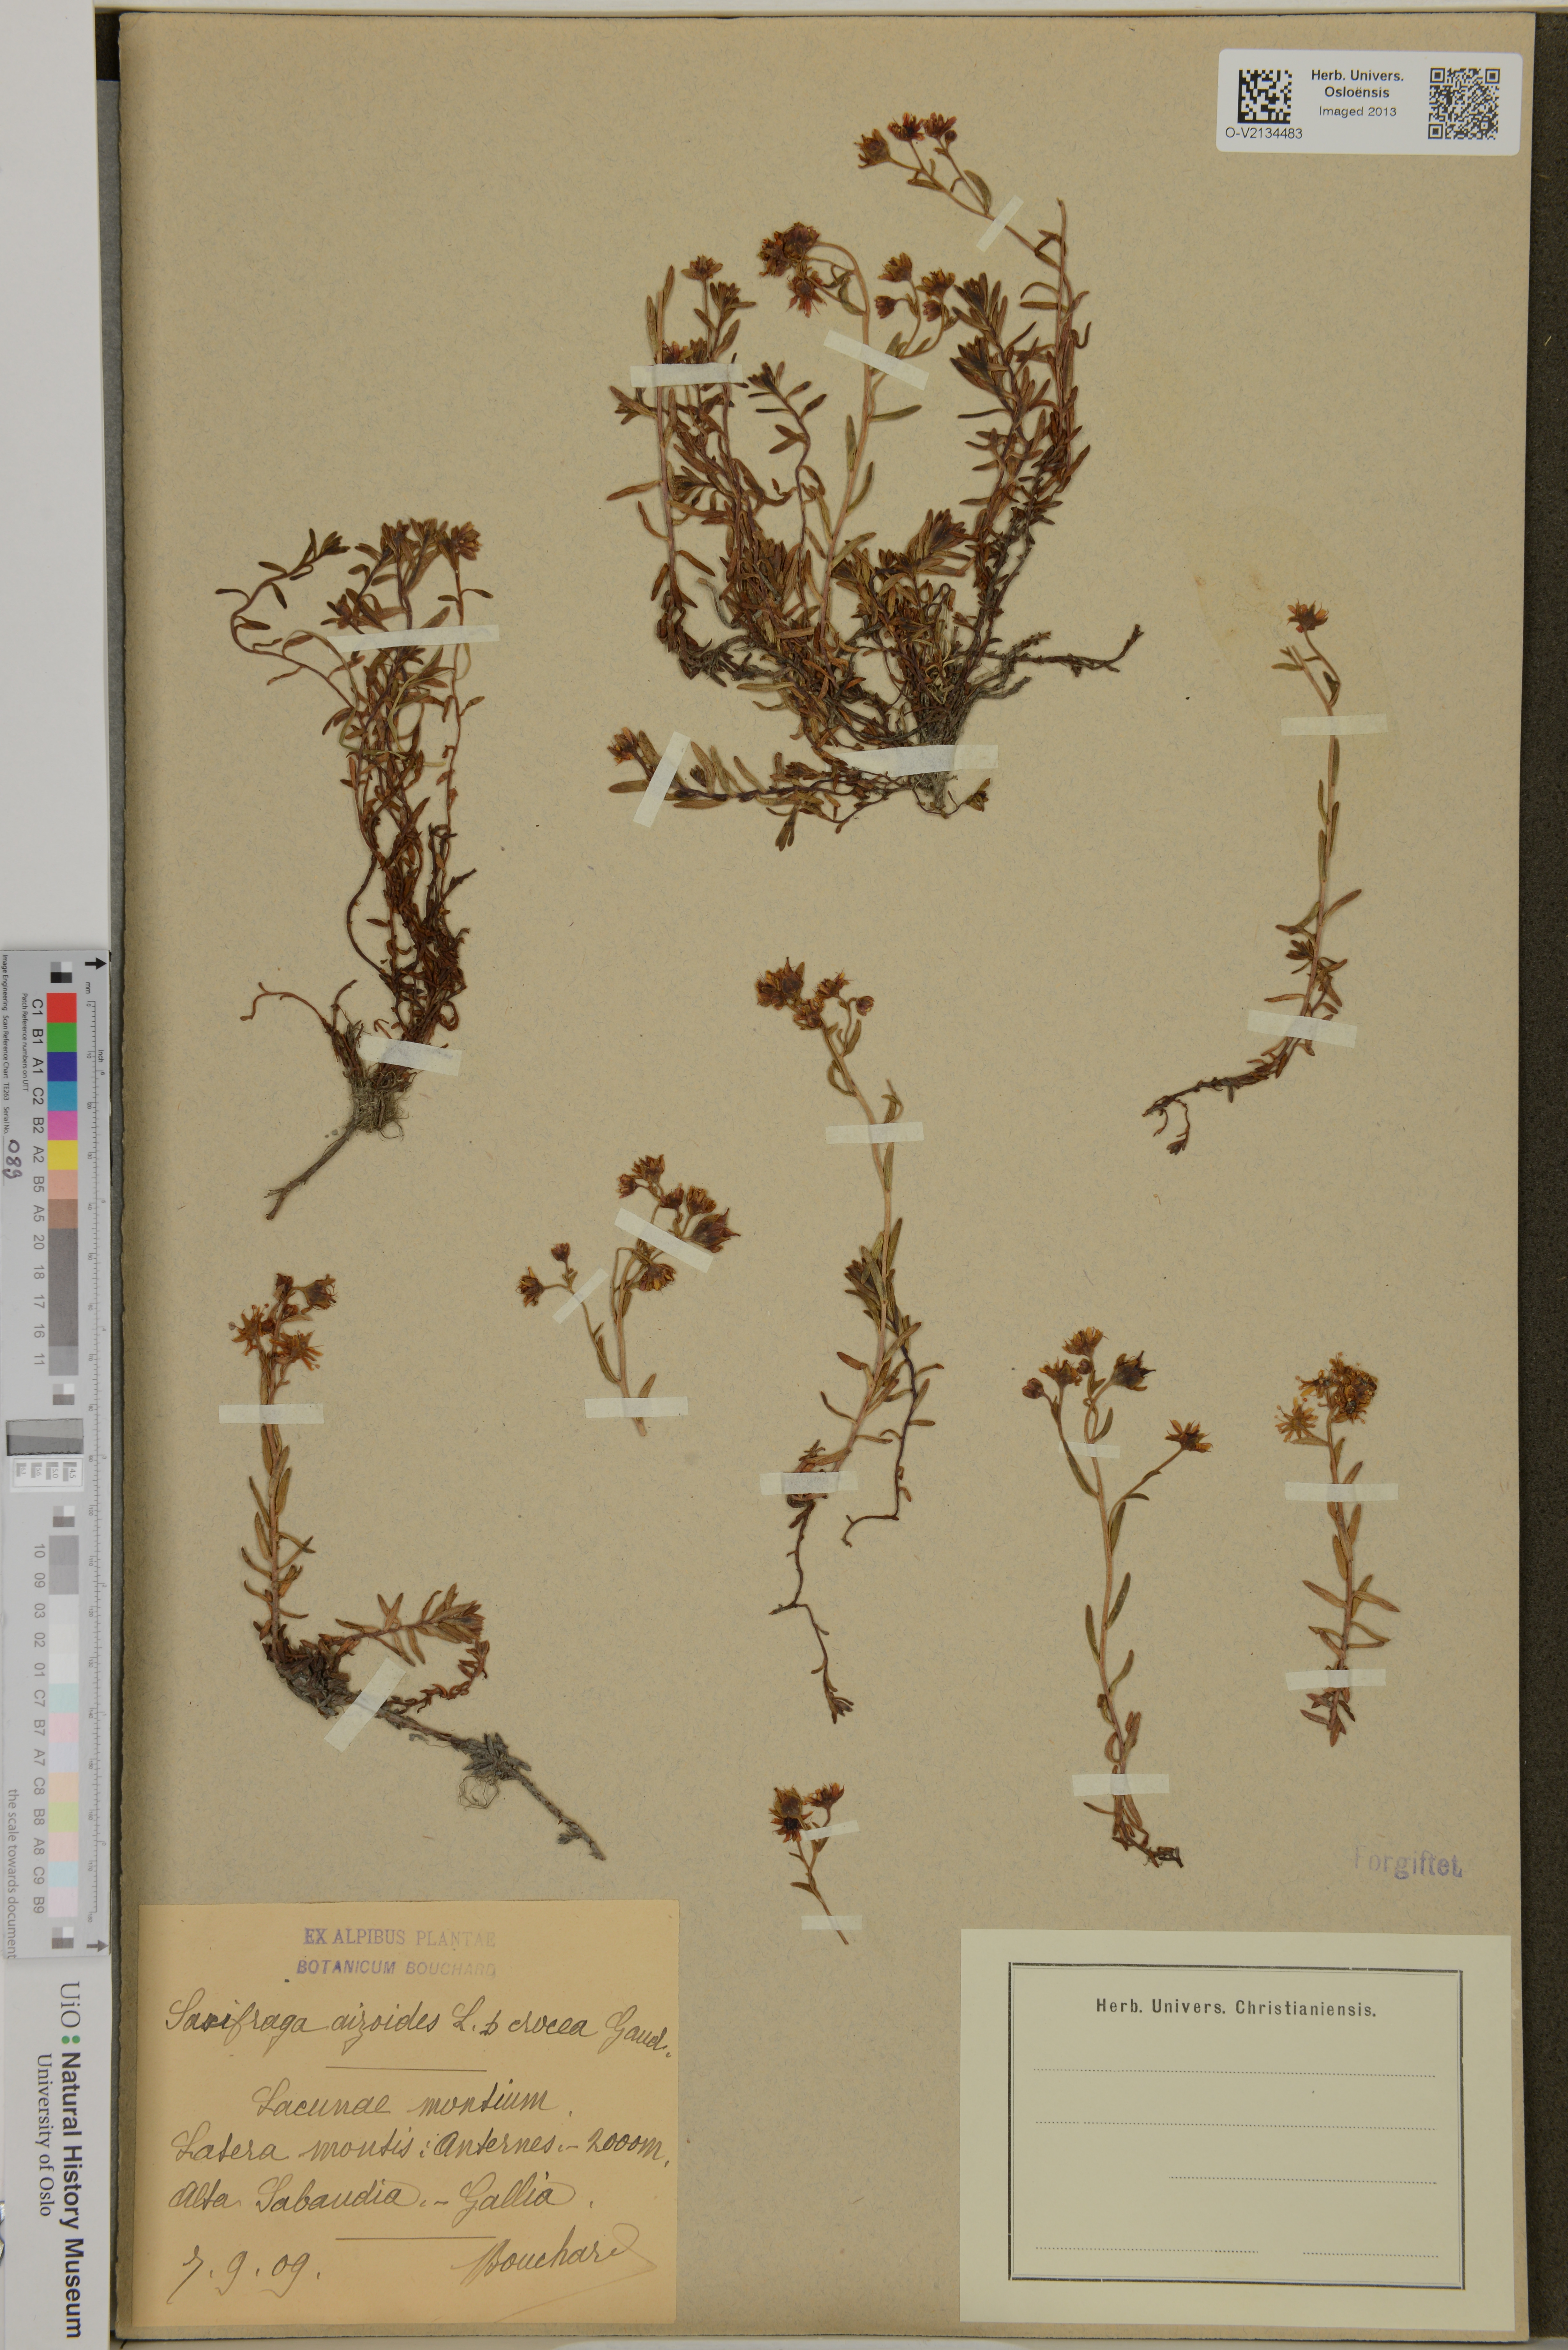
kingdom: Plantae
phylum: Tracheophyta
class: Magnoliopsida
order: Saxifragales
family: Saxifragaceae
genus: Saxifraga
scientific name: Saxifraga aizoides
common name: Yellow mountain saxifrage
